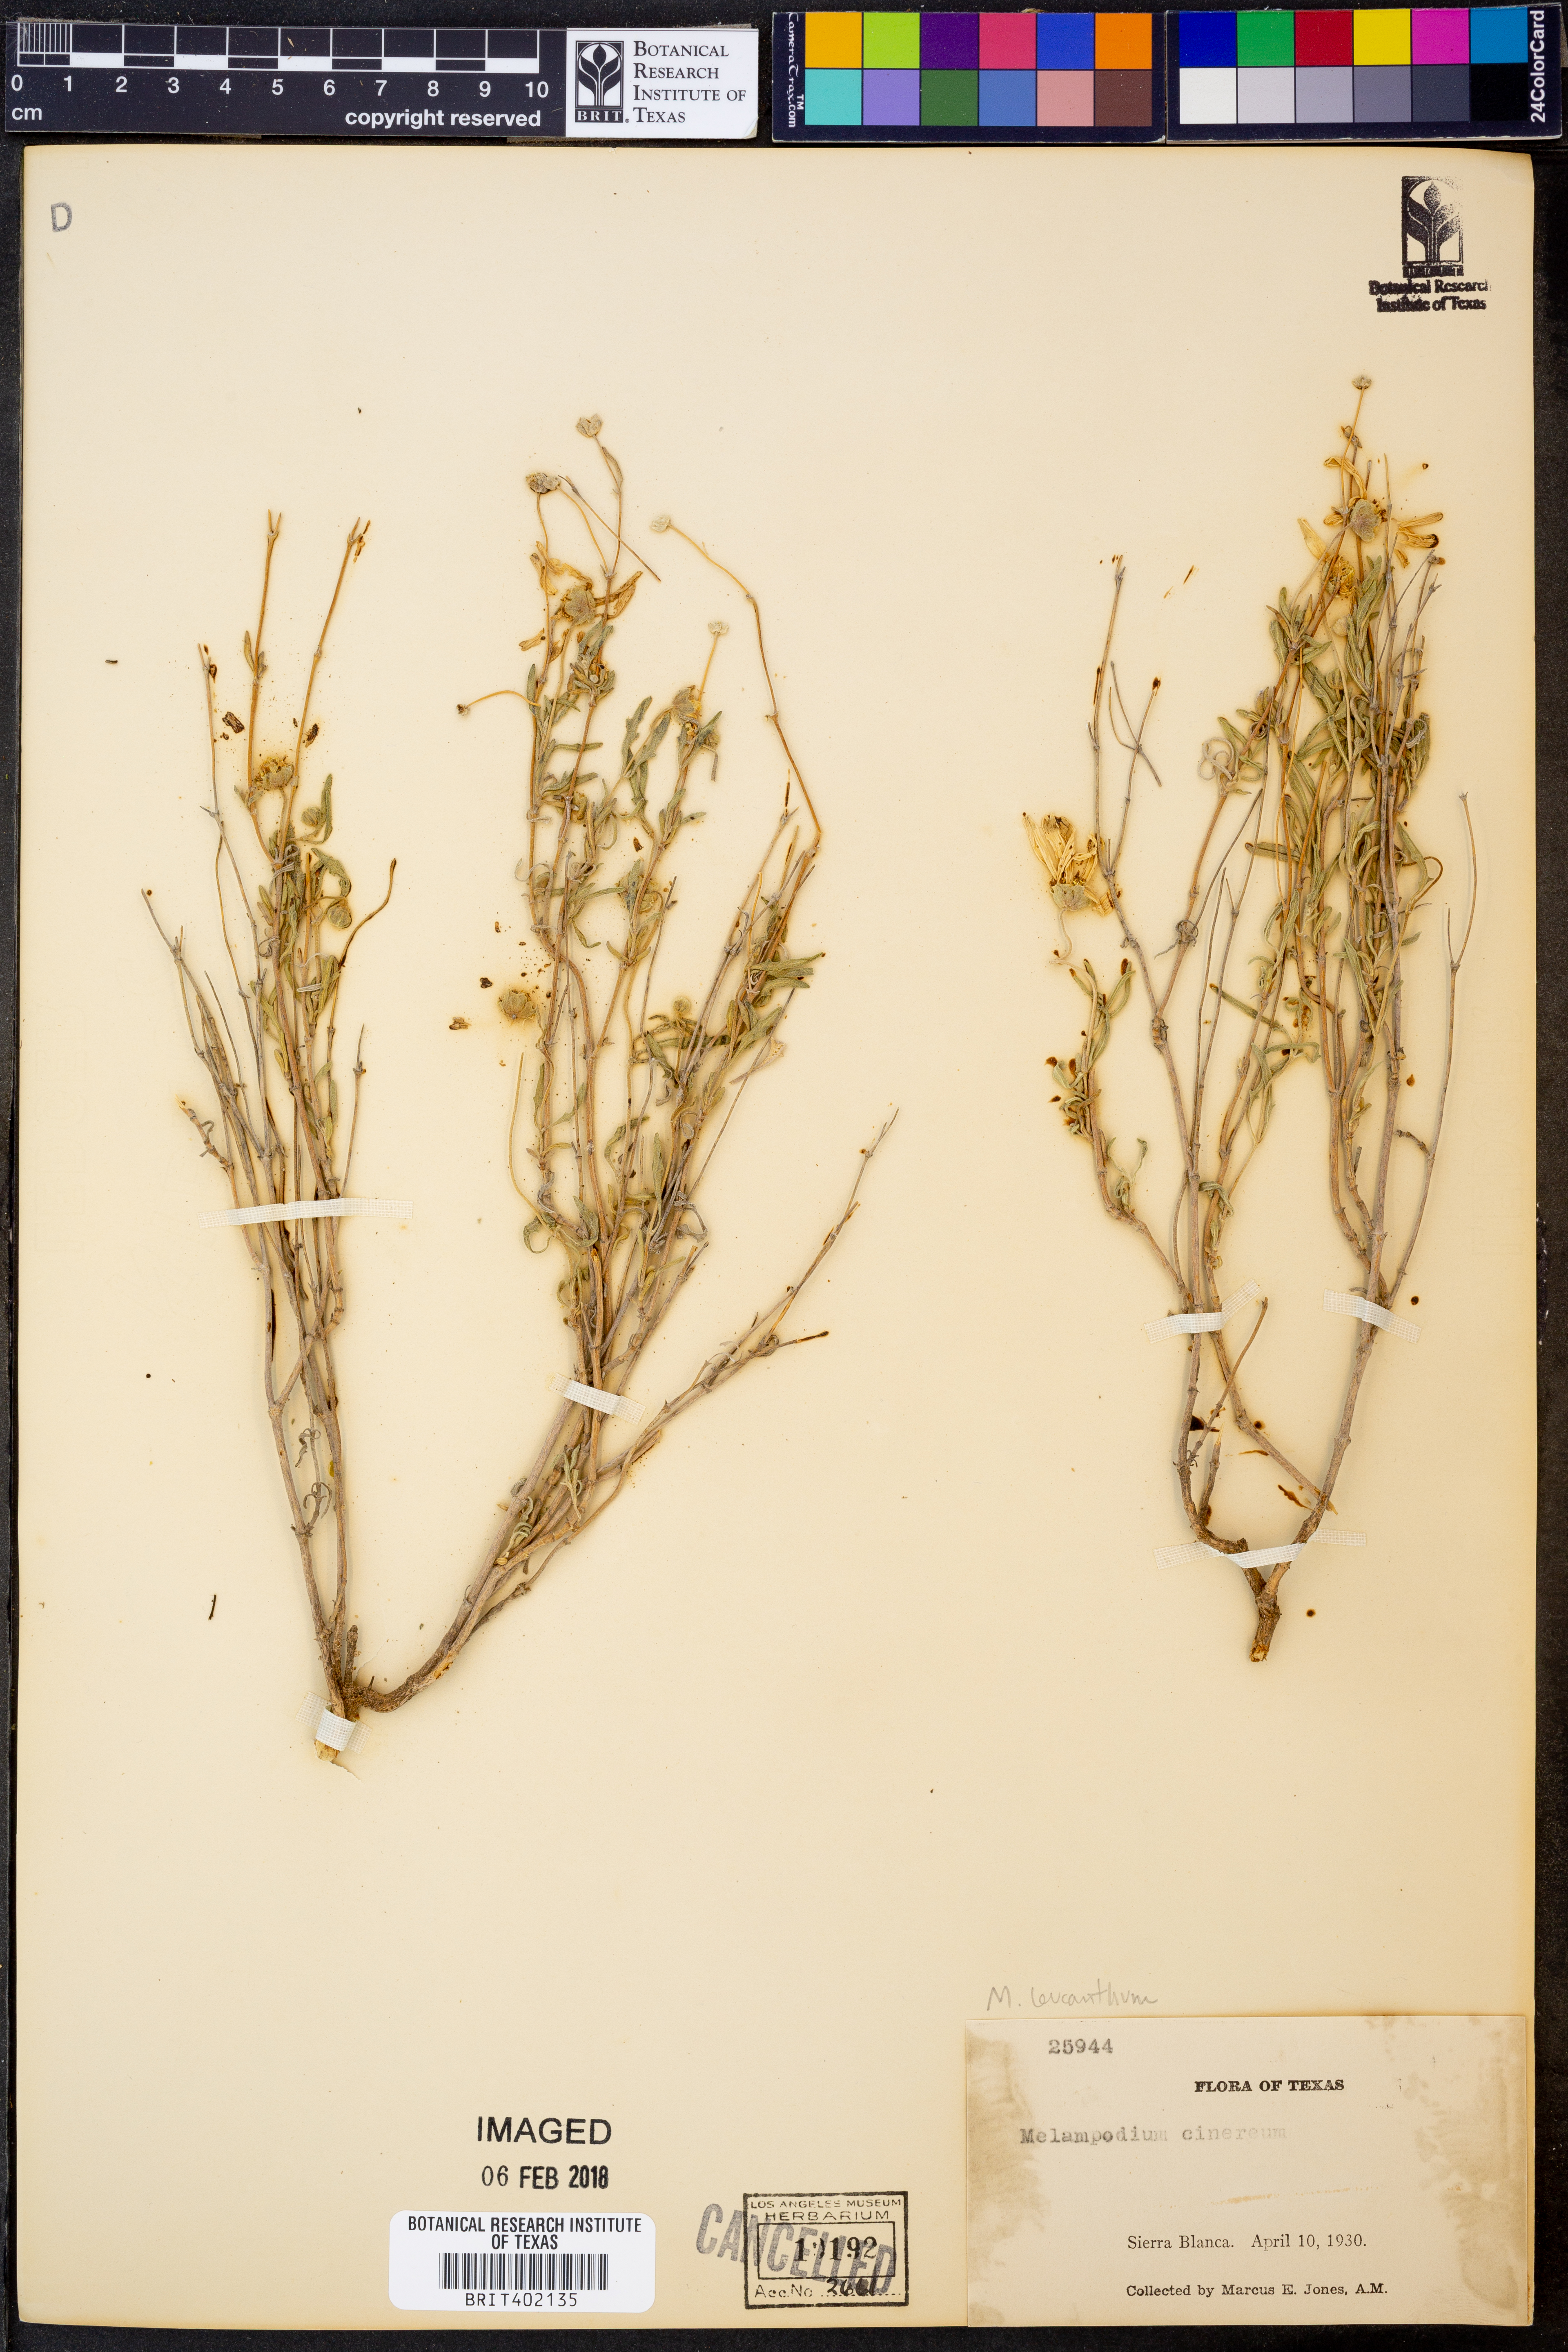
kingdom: Plantae
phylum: Tracheophyta
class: Magnoliopsida
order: Asterales
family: Asteraceae
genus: Melampodium
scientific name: Melampodium cinereum
